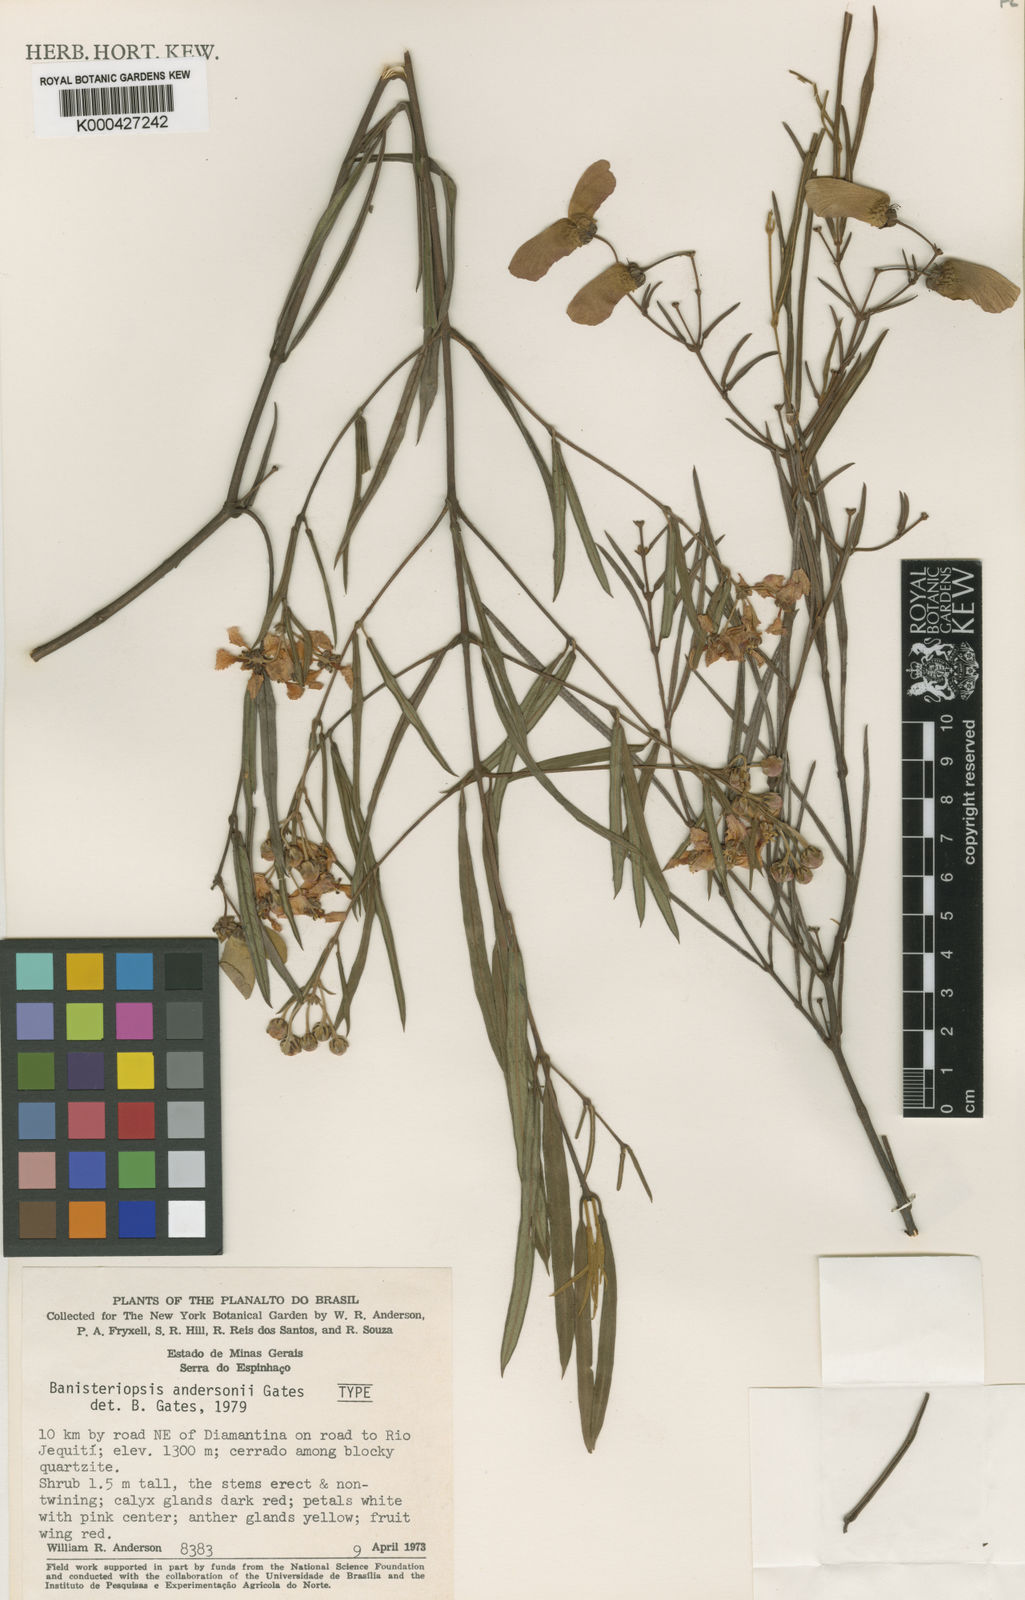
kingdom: Plantae
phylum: Tracheophyta
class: Magnoliopsida
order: Malpighiales
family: Malpighiaceae
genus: Banisteriopsis
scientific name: Banisteriopsis andersonii
